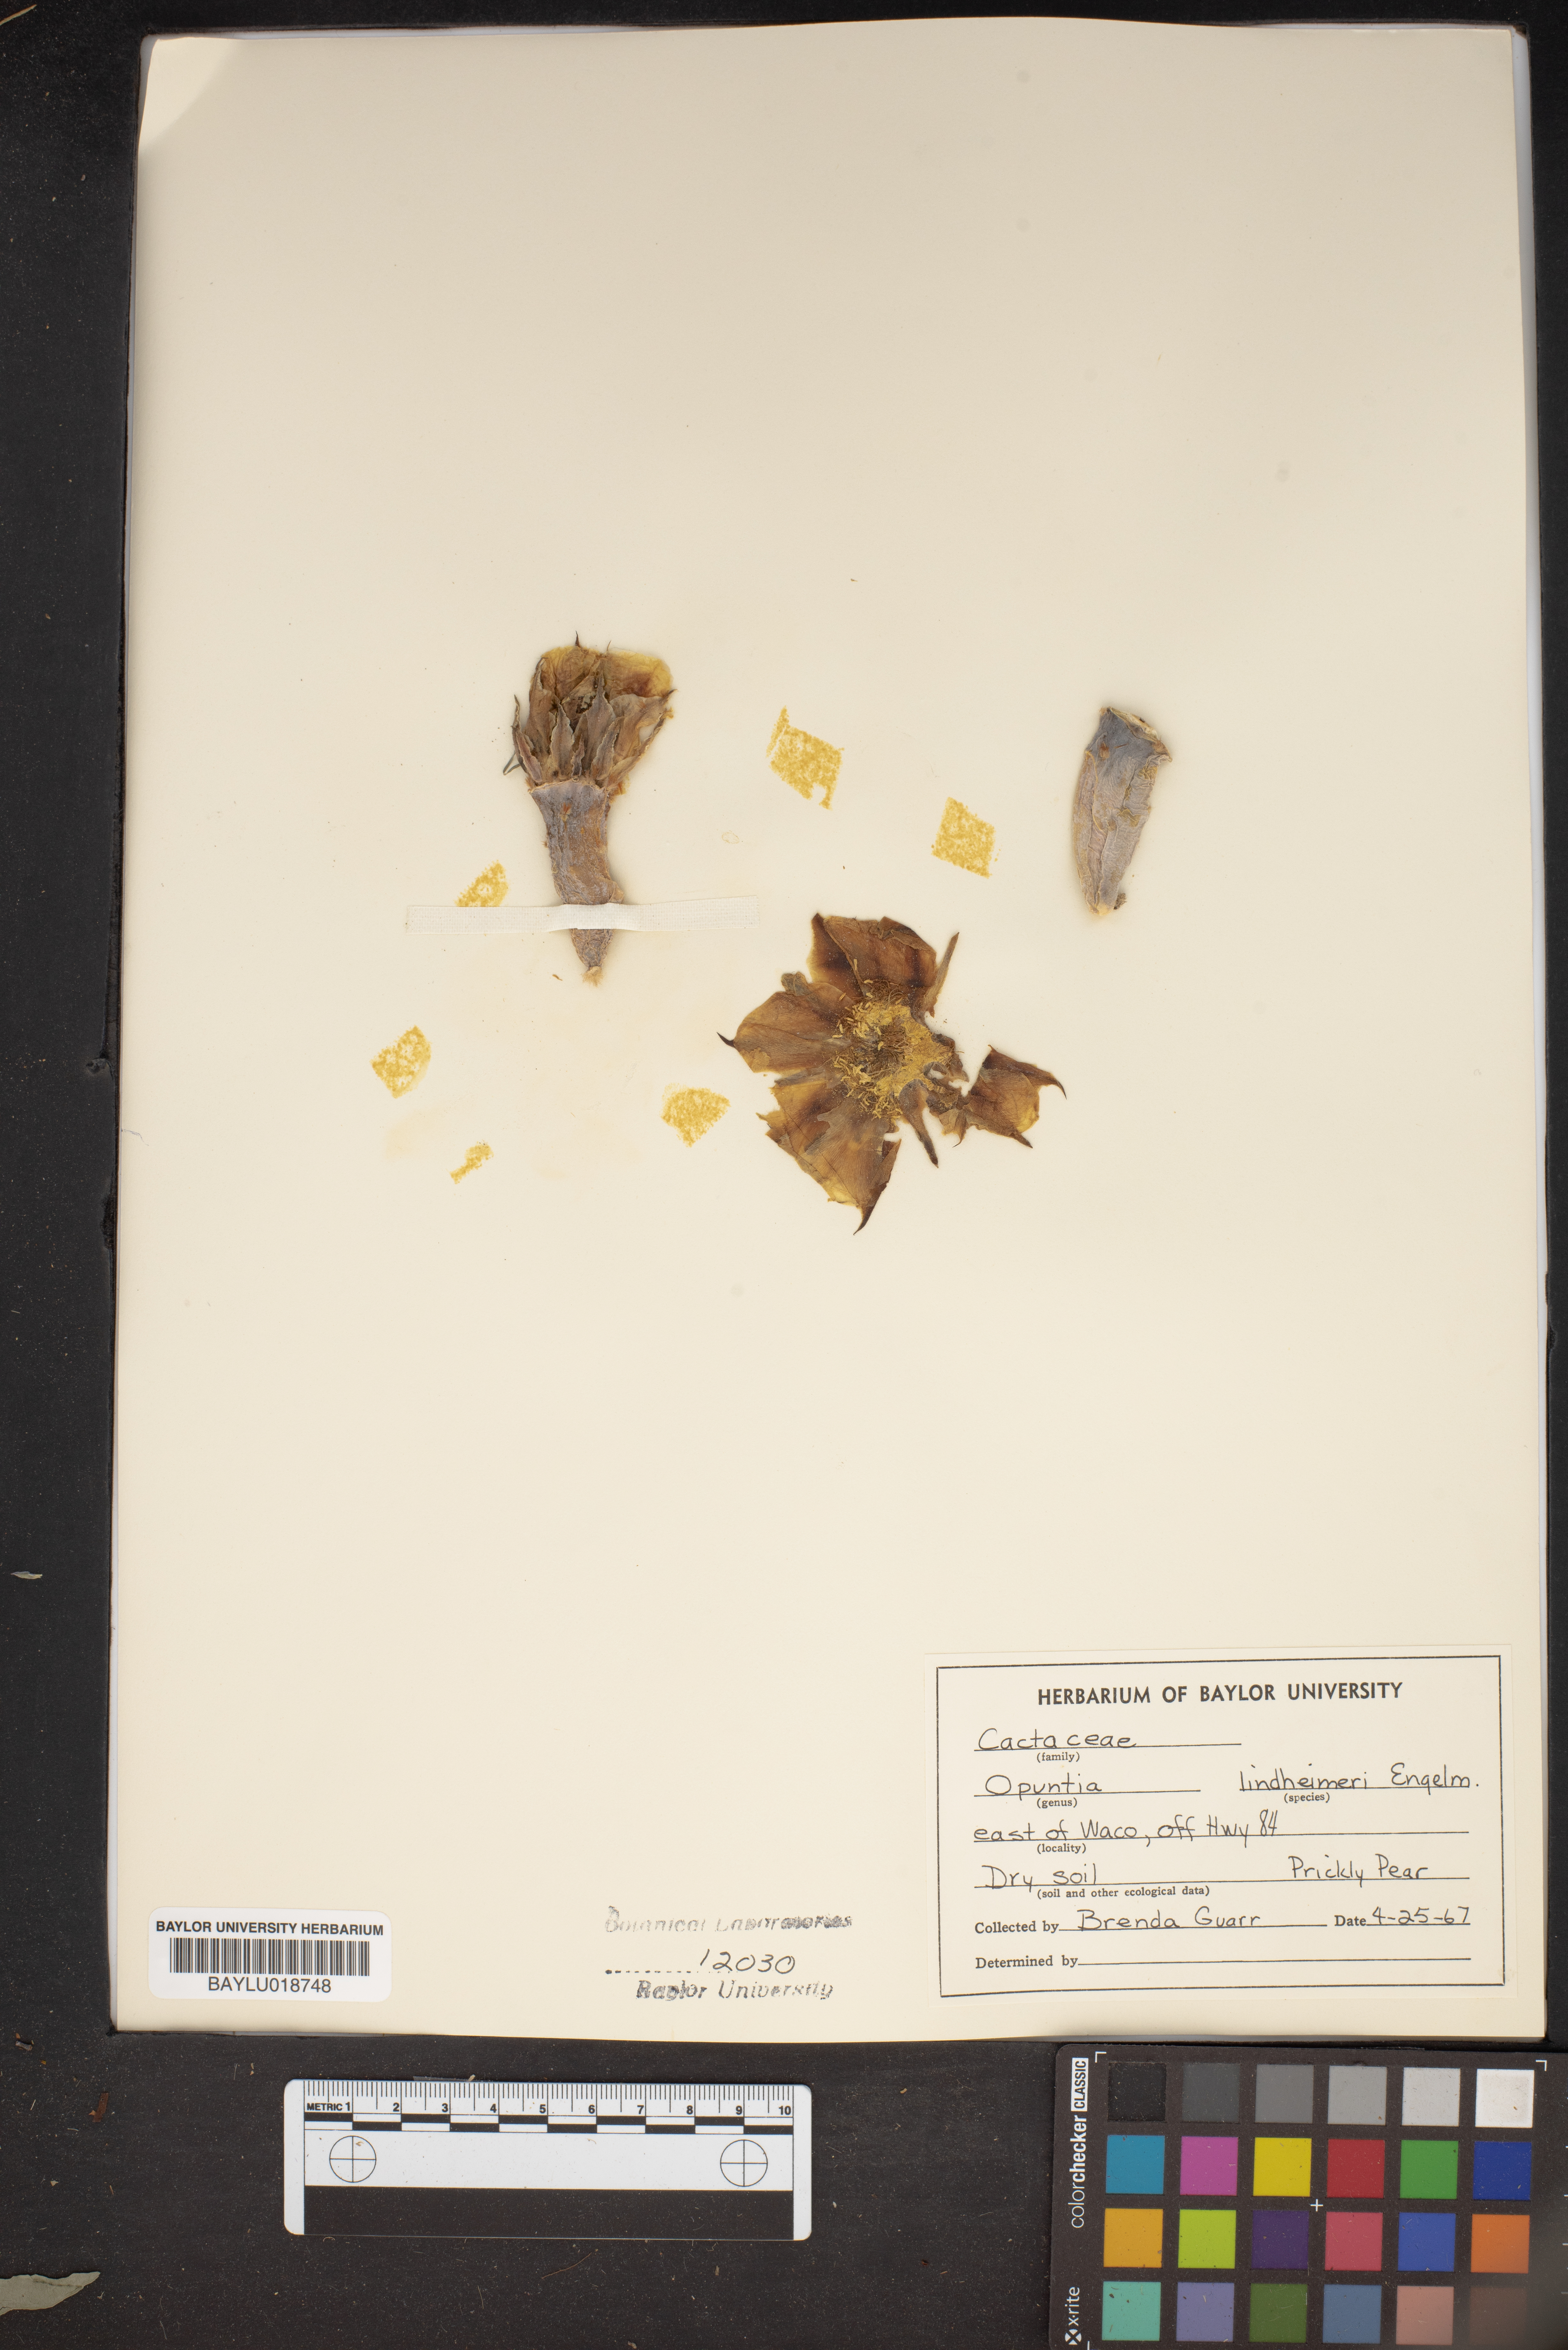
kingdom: Plantae
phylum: Tracheophyta
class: Magnoliopsida
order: Caryophyllales
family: Cactaceae
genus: Opuntia
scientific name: Opuntia engelmannii
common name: Cactus-apple
